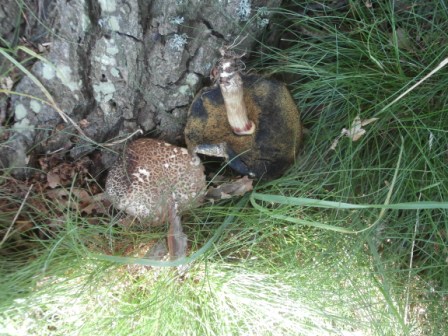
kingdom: Fungi
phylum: Basidiomycota
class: Agaricomycetes
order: Boletales
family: Boletaceae
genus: Xerocomellus
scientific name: Xerocomellus porosporus
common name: hvidsprukken rørhat
